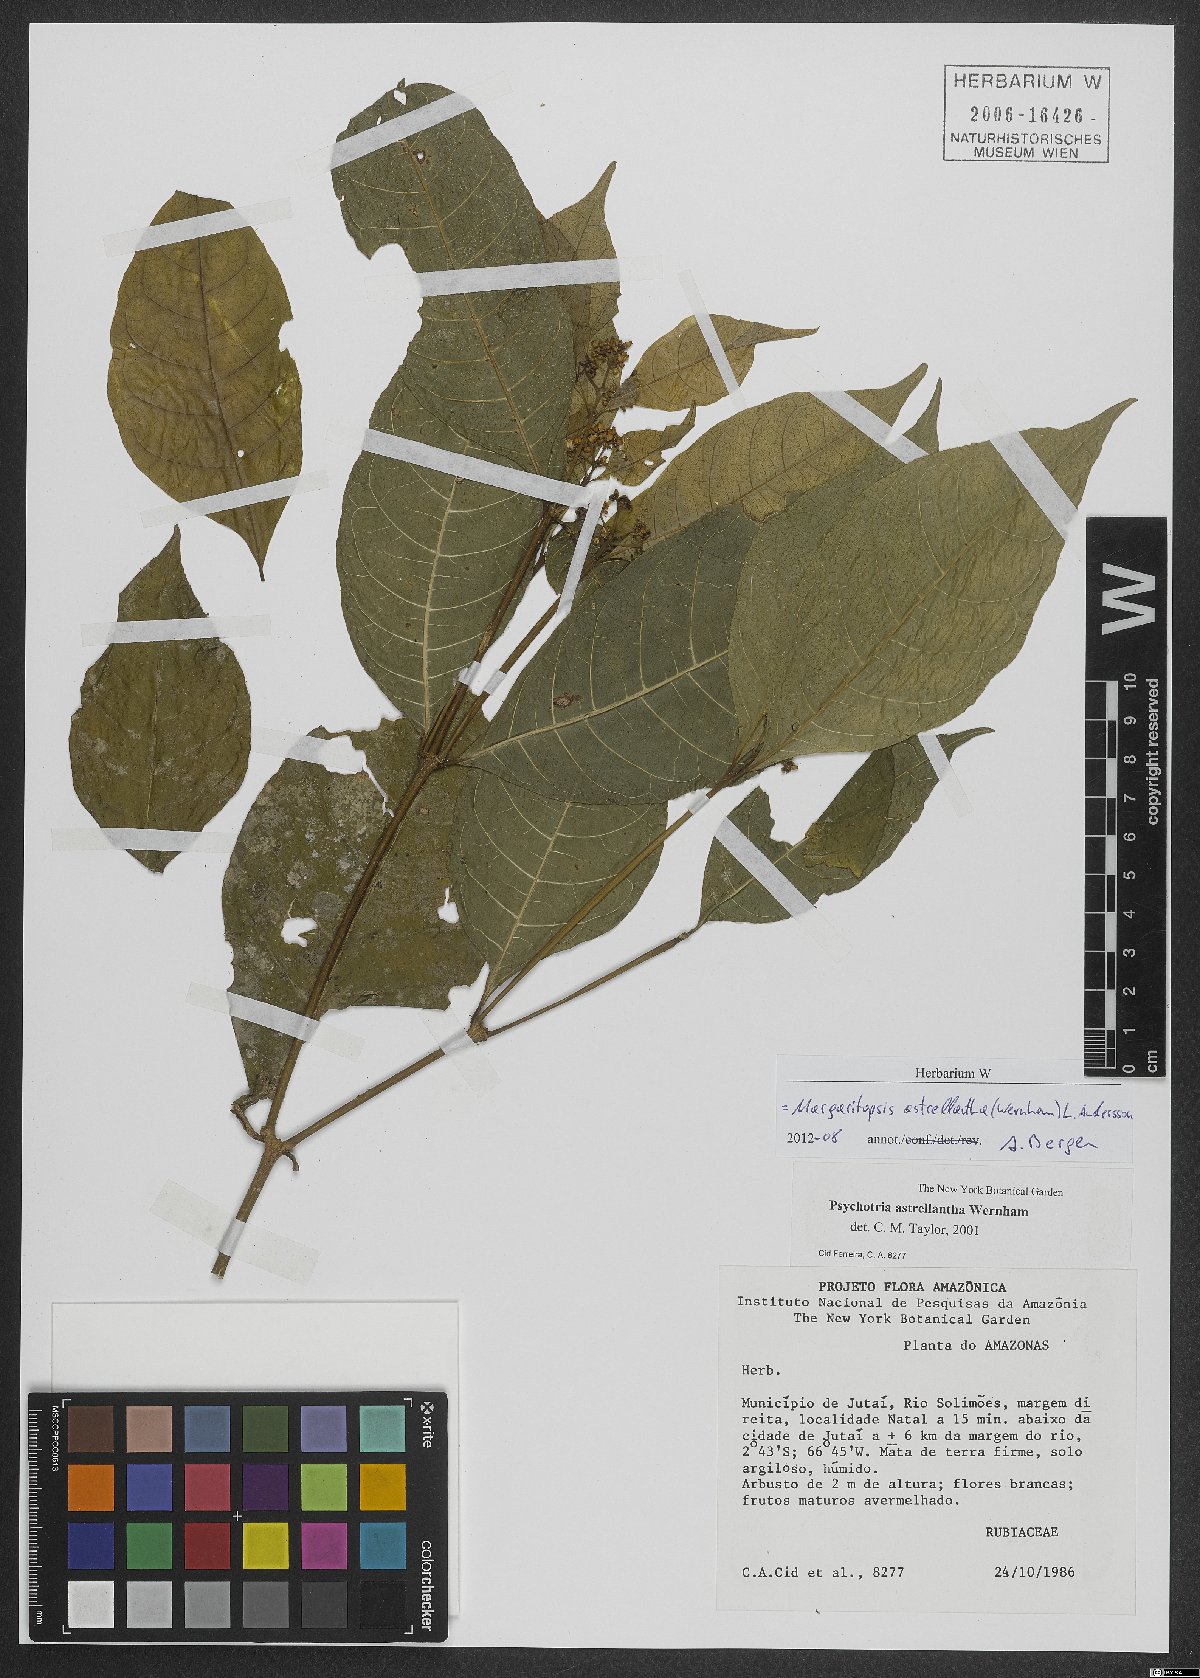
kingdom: Plantae
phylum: Tracheophyta
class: Magnoliopsida
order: Gentianales
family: Rubiaceae
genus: Eumachia
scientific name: Eumachia astrellantha
